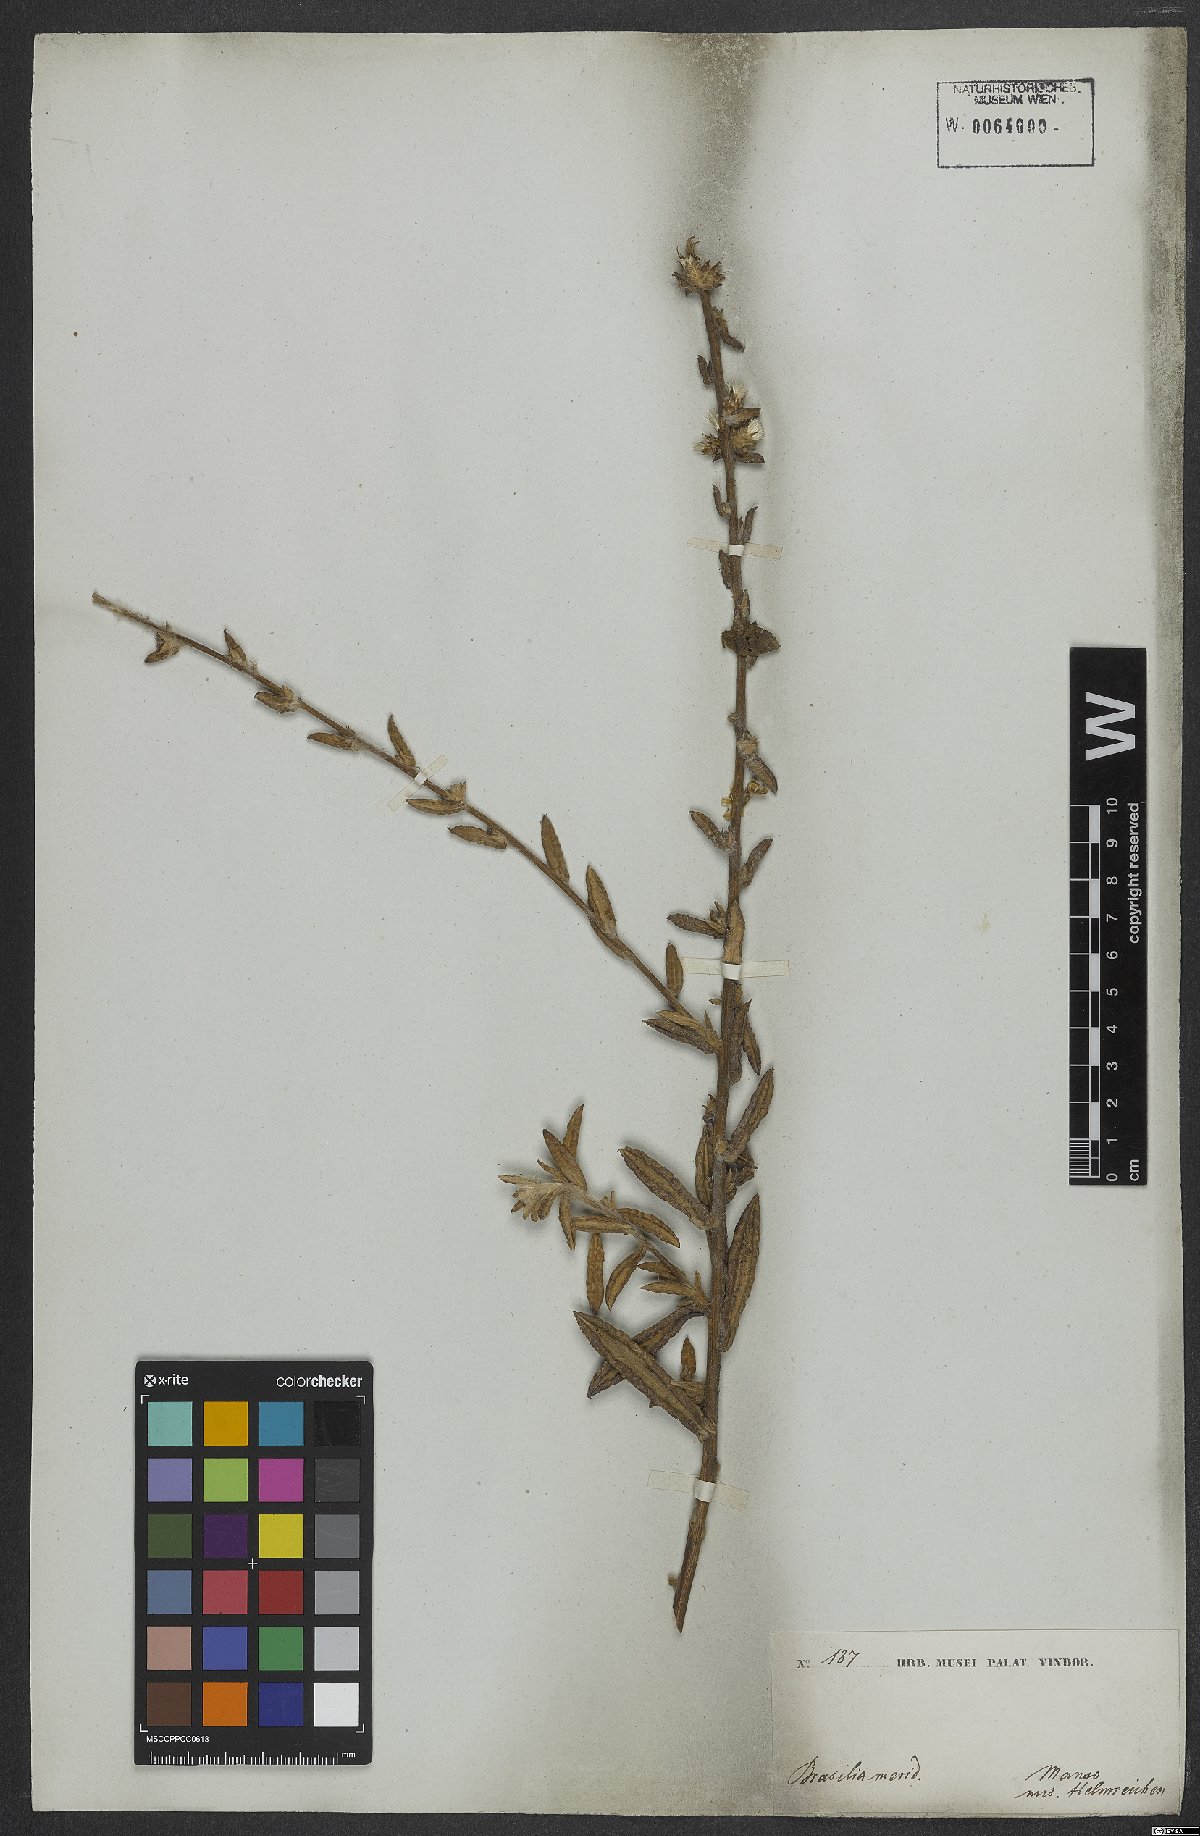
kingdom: Plantae
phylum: Tracheophyta
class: Magnoliopsida
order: Asterales
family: Asteraceae
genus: Stilpnopappus
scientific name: Stilpnopappus pohlii
